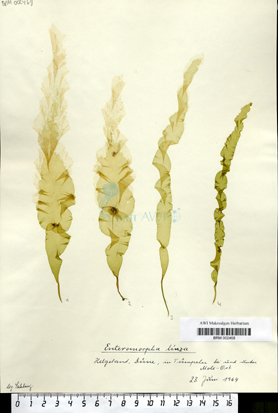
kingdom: Plantae
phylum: Chlorophyta
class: Ulvophyceae
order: Ulvales
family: Ulvaceae
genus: Ulva
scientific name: Ulva linza
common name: Green string lettuce
